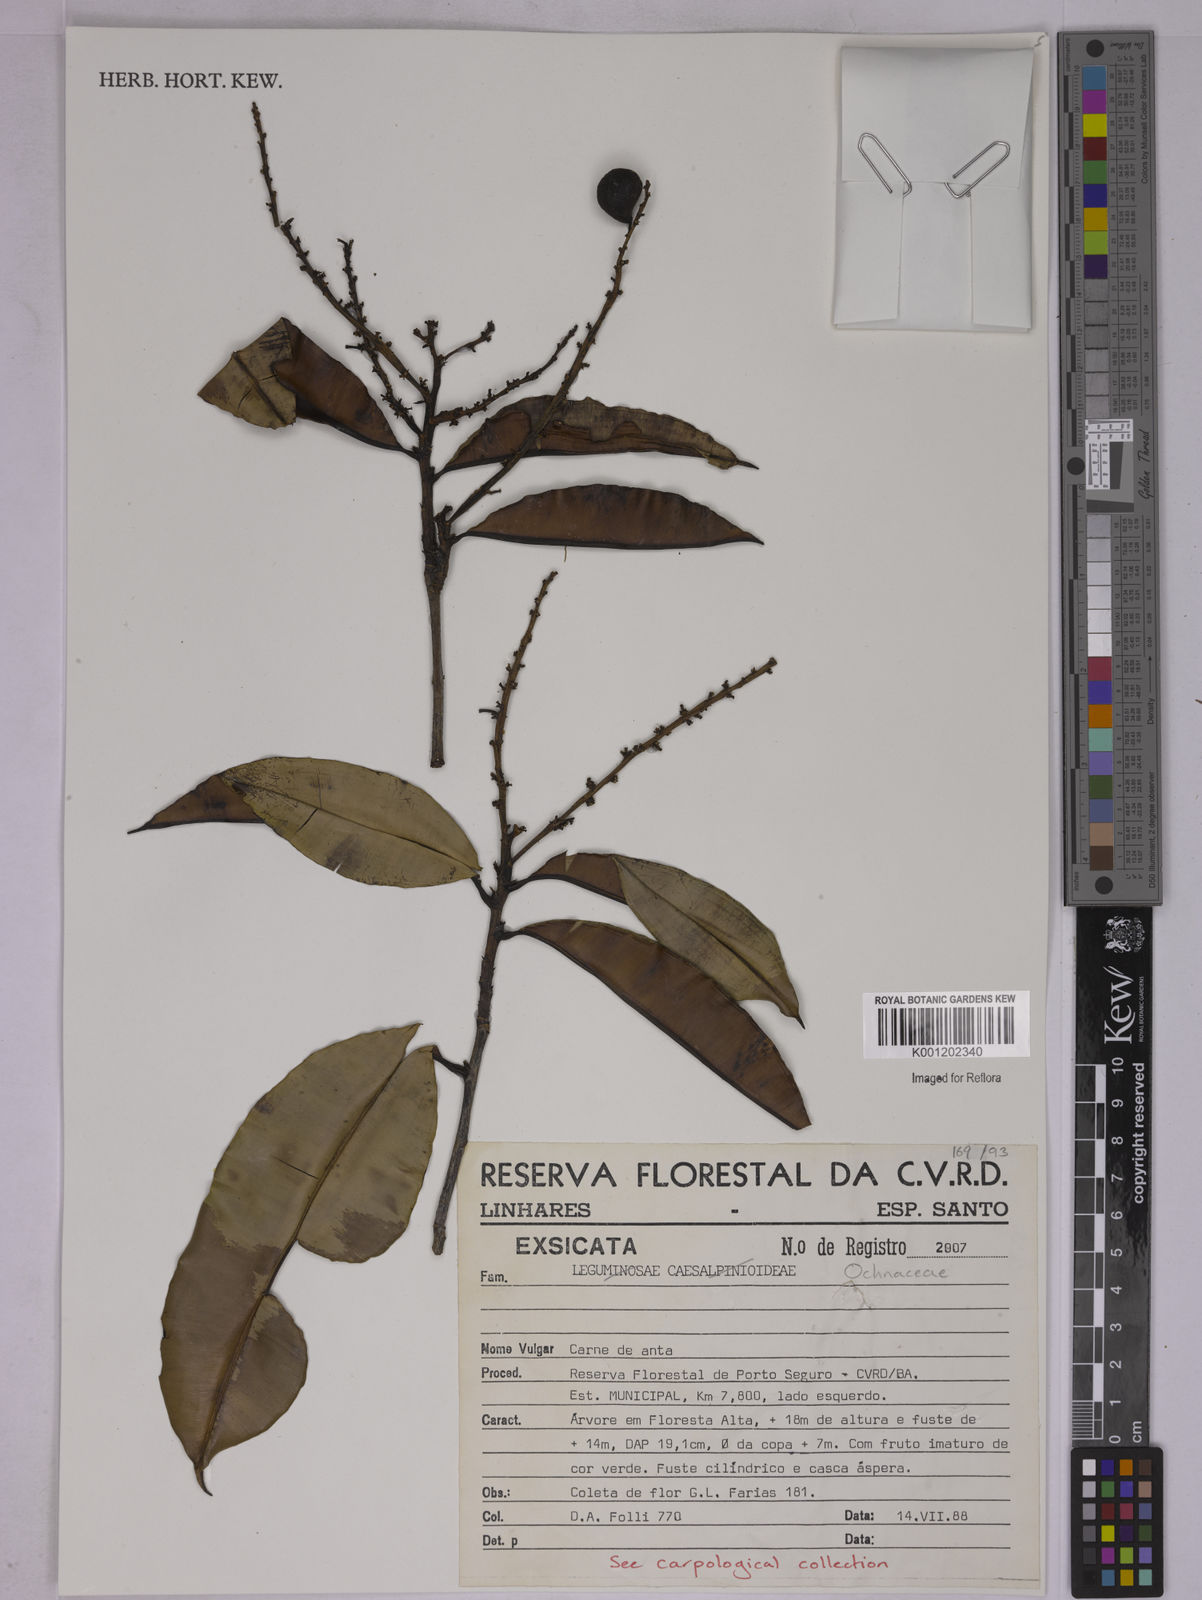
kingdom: Plantae
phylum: Tracheophyta
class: Magnoliopsida
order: Malpighiales
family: Ochnaceae
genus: Elvasia
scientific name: Elvasia
